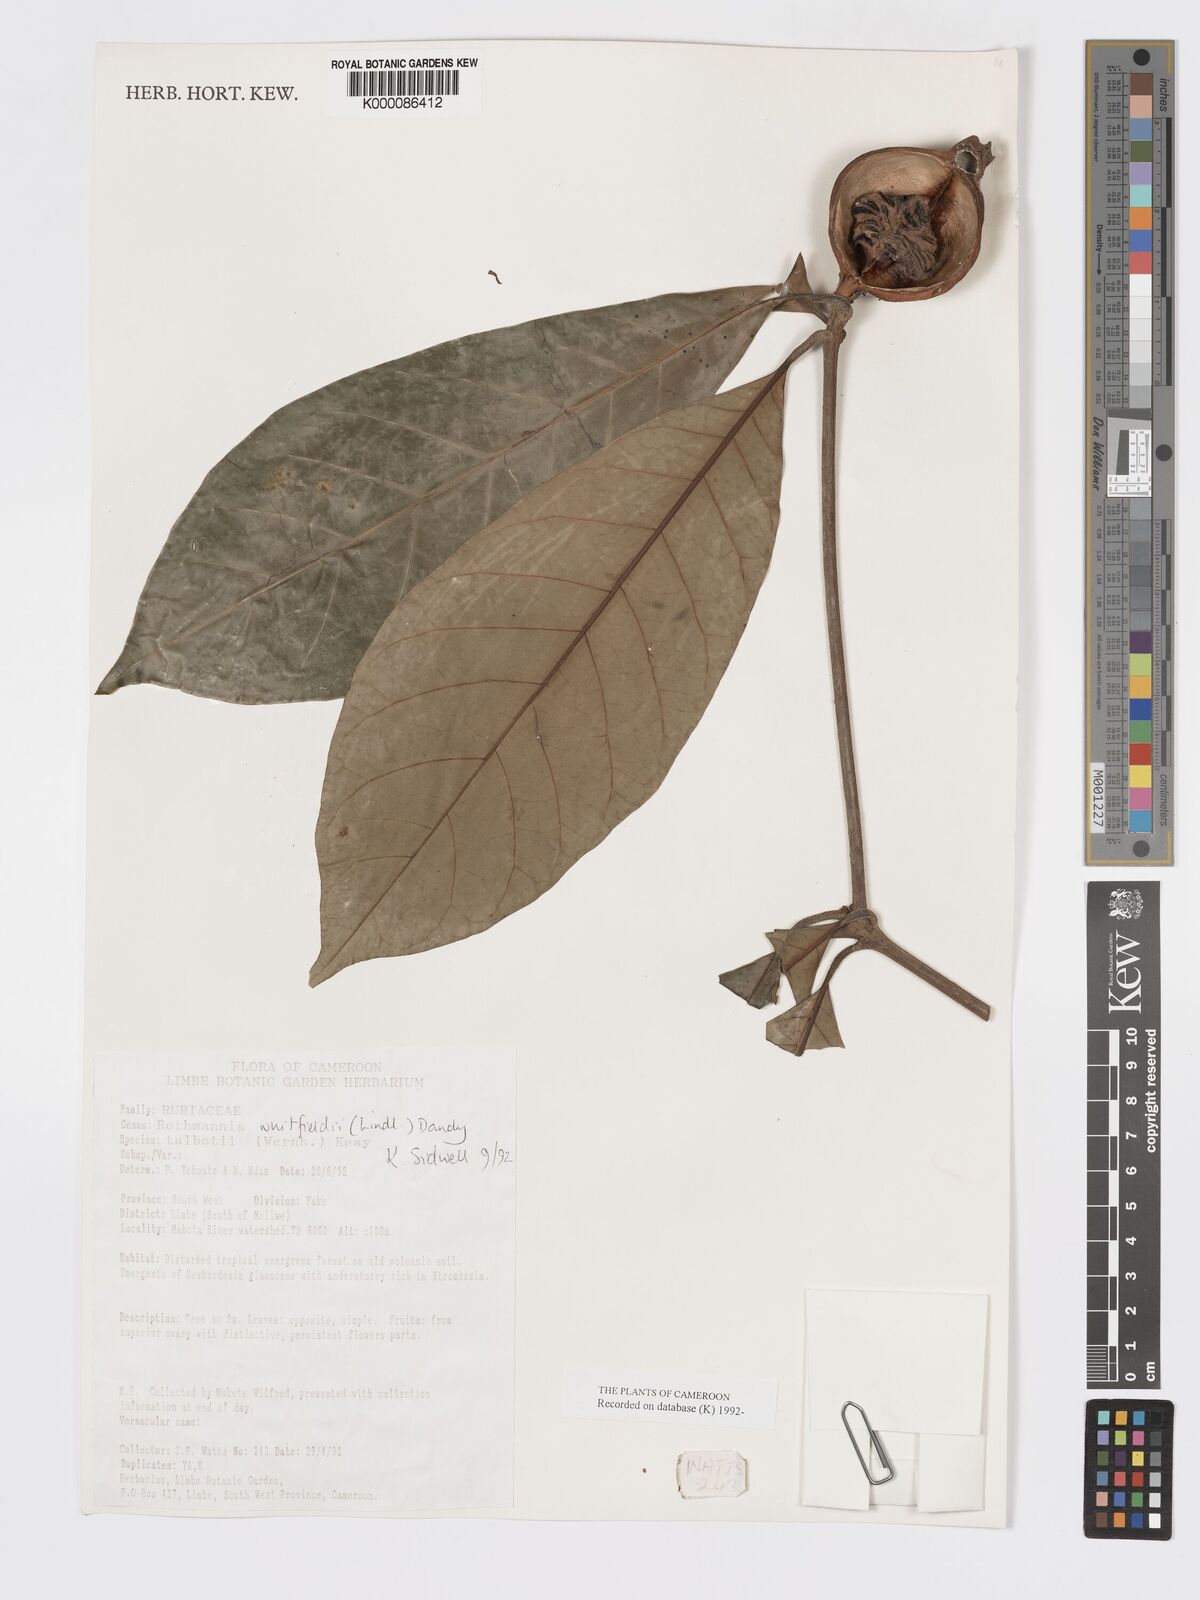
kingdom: Plantae
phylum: Tracheophyta
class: Magnoliopsida
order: Gentianales
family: Rubiaceae
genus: Rothmannia
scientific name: Rothmannia whitfieldii
